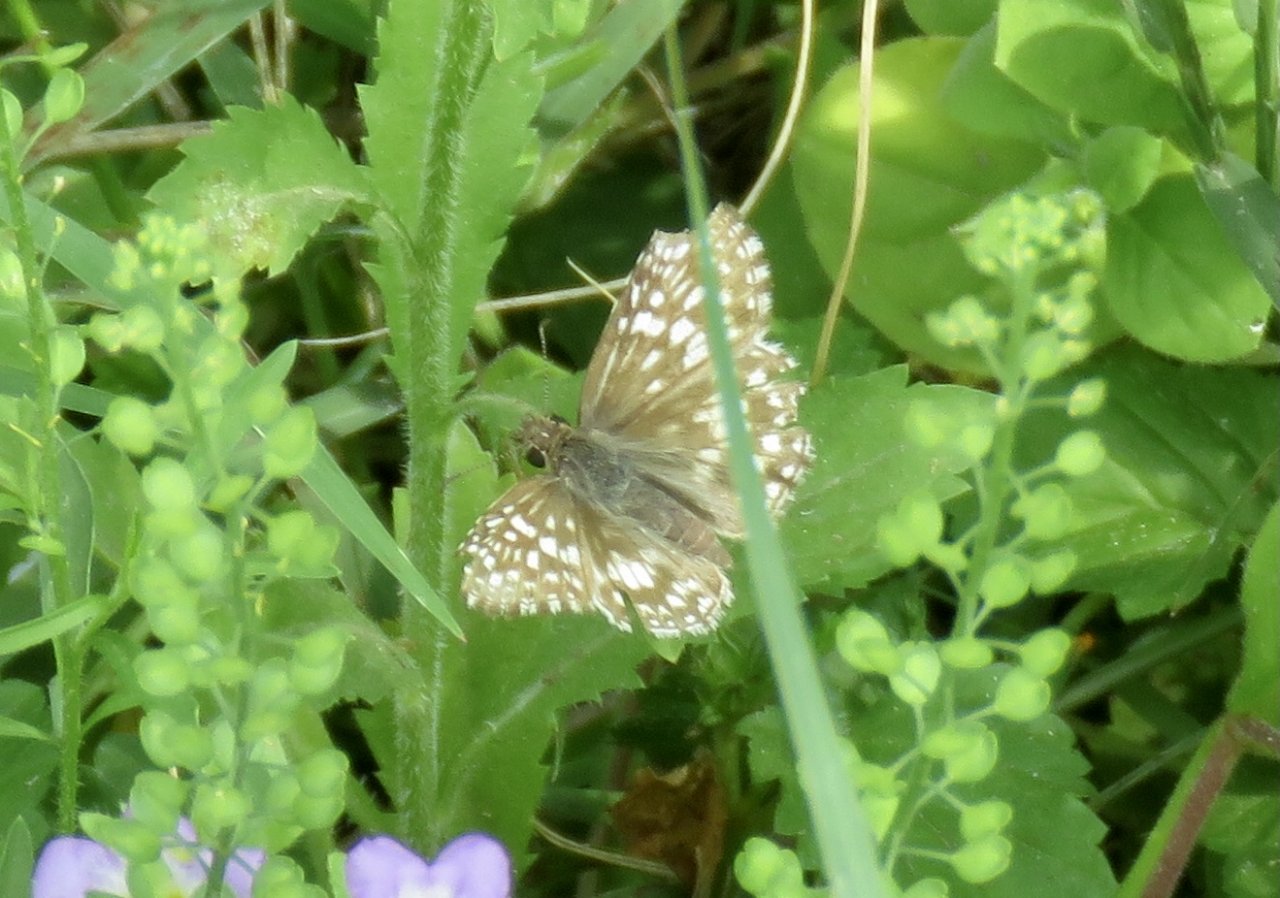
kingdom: Animalia
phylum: Arthropoda
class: Insecta
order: Lepidoptera
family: Hesperiidae
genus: Pyrgus
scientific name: Pyrgus oileus
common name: Tropical Checkered-Skipper
